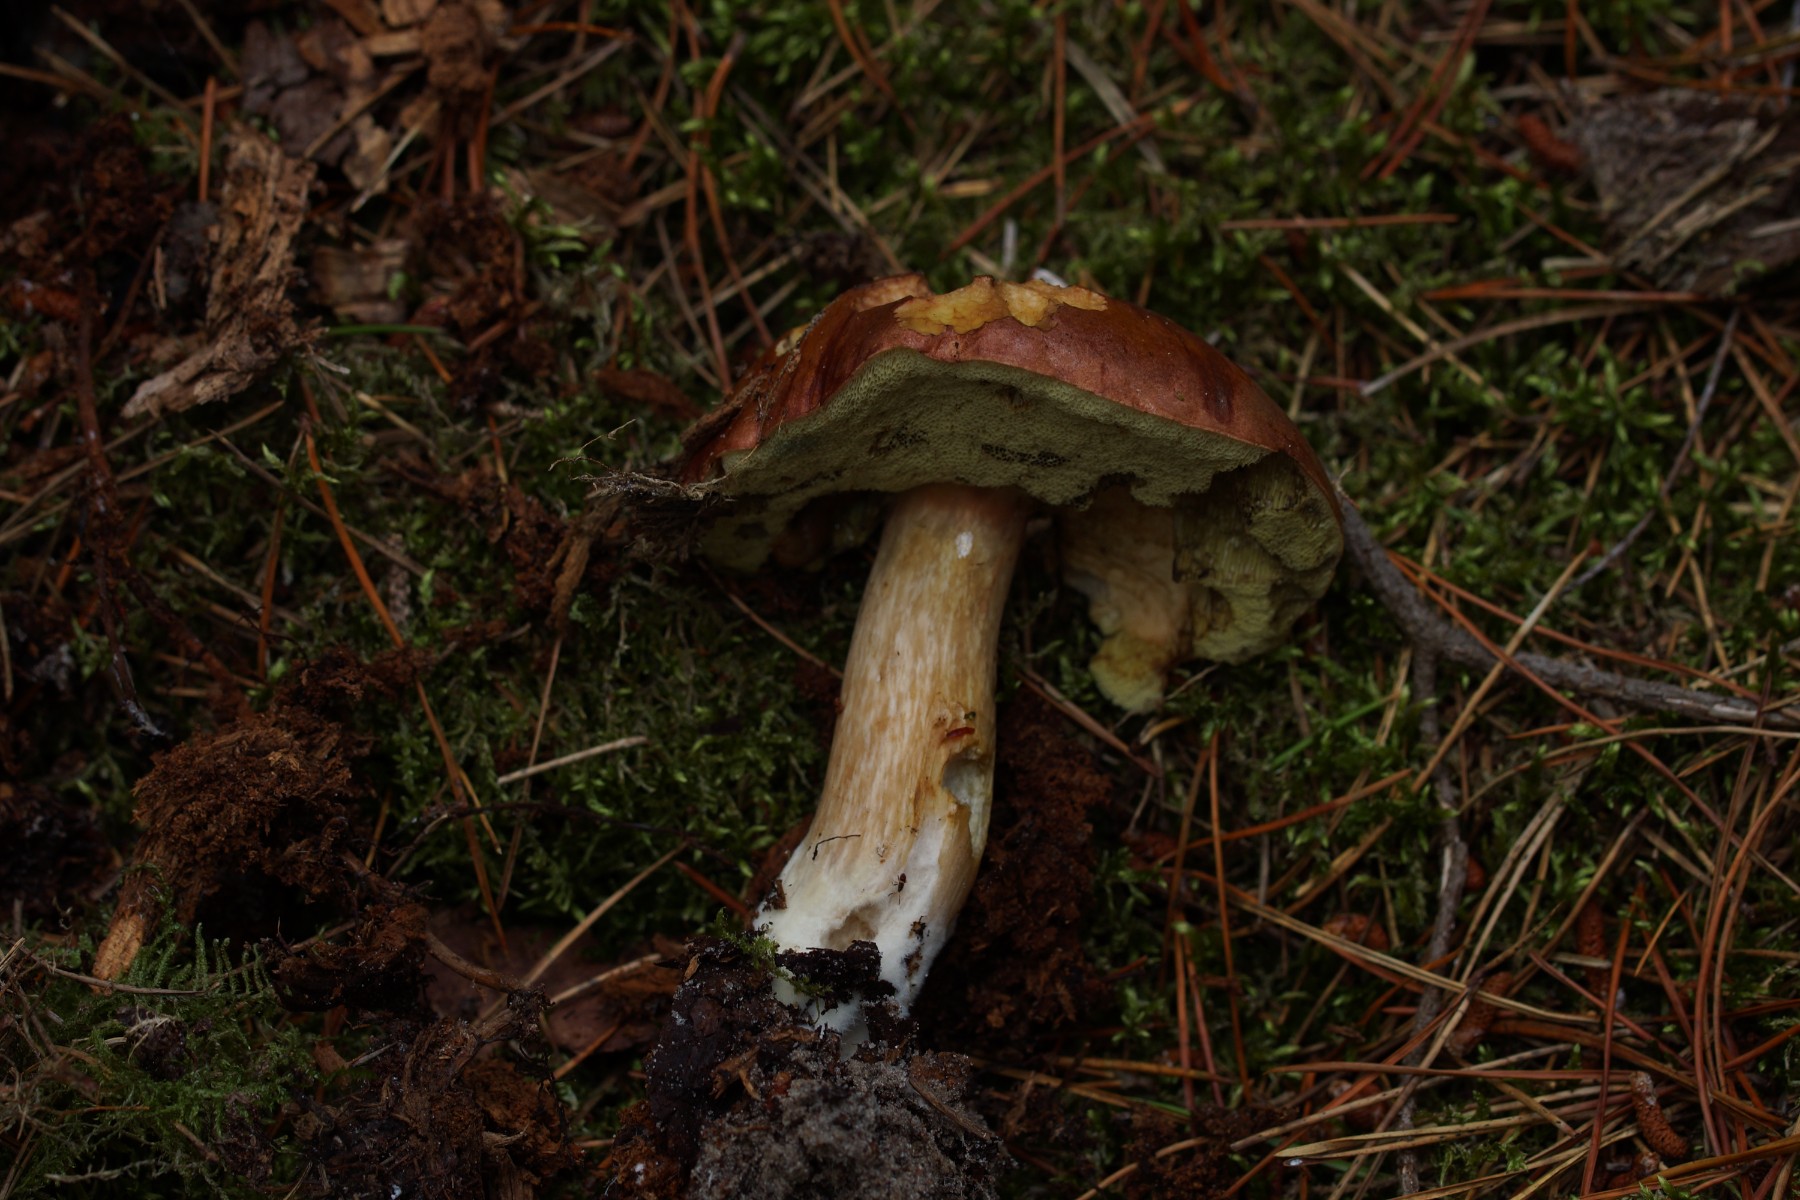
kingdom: Fungi
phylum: Basidiomycota
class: Agaricomycetes
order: Boletales
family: Boletaceae
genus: Imleria
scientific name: Imleria badia
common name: brunstokket rørhat
